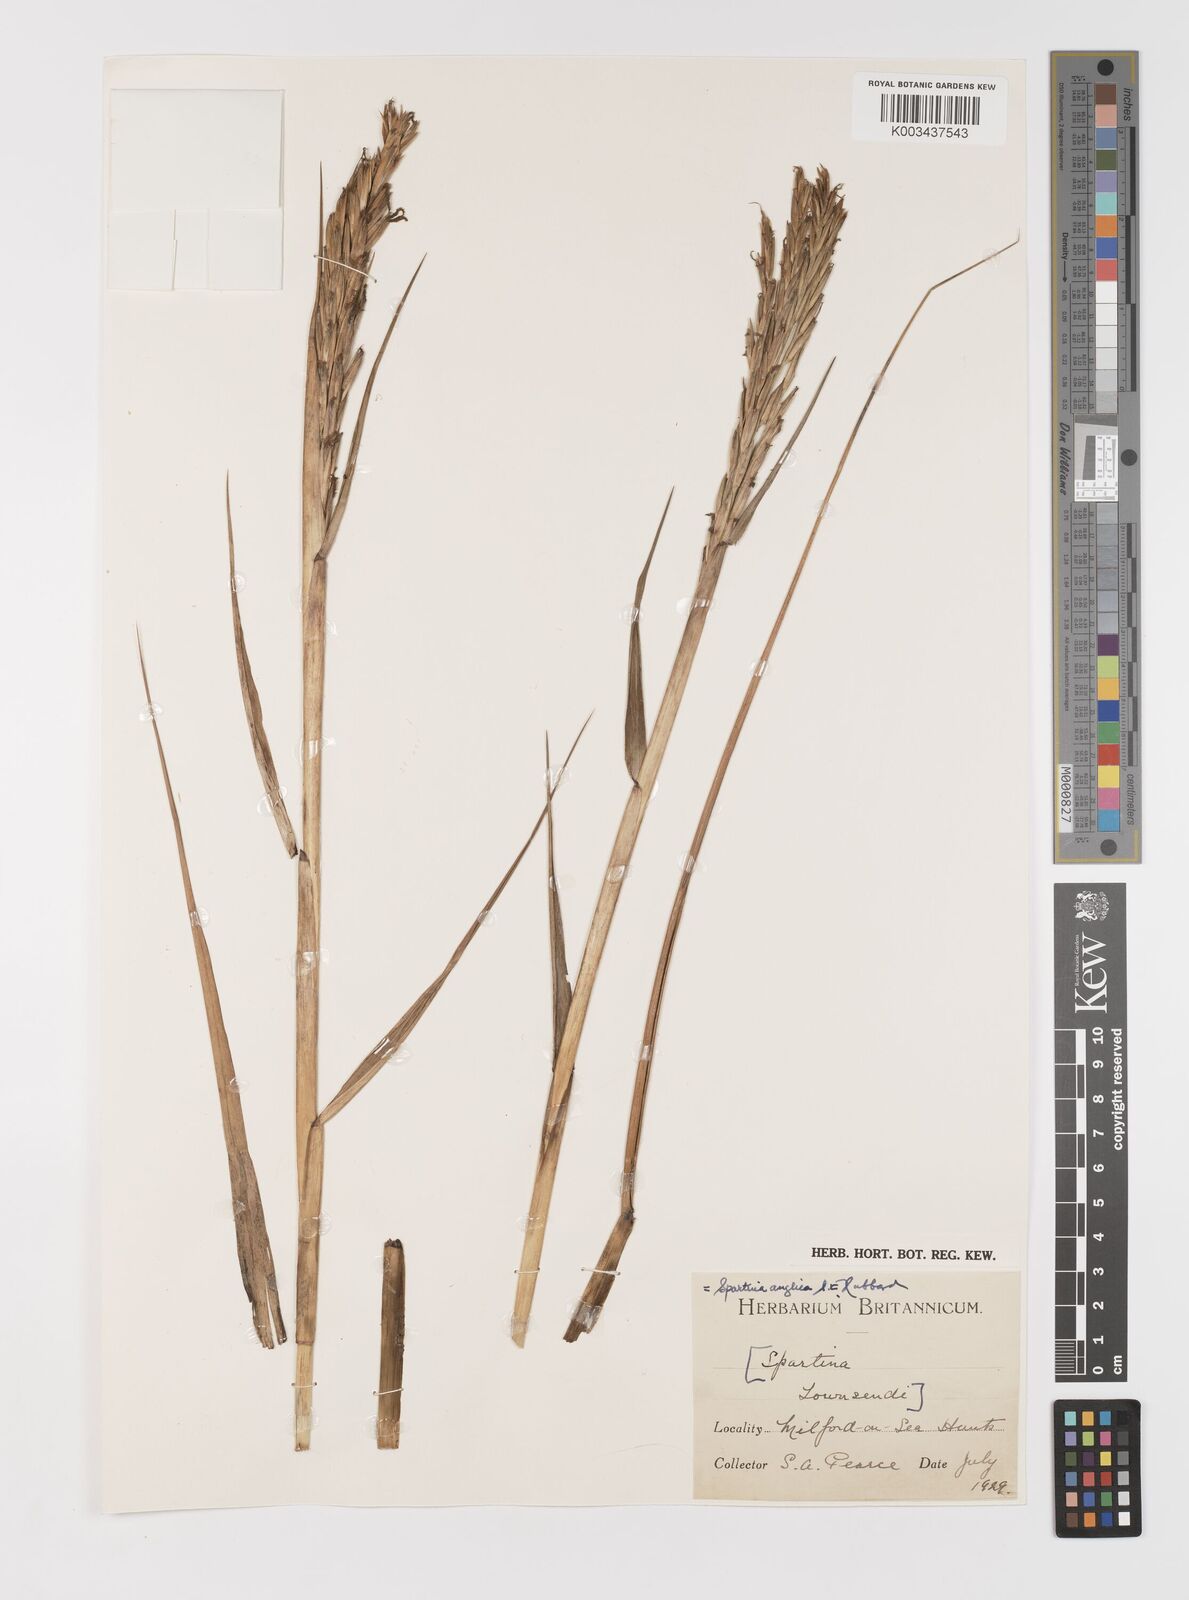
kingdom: Plantae
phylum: Tracheophyta
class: Liliopsida
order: Poales
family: Poaceae
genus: Sporobolus
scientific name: Sporobolus anglicus
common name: English cordgrass
